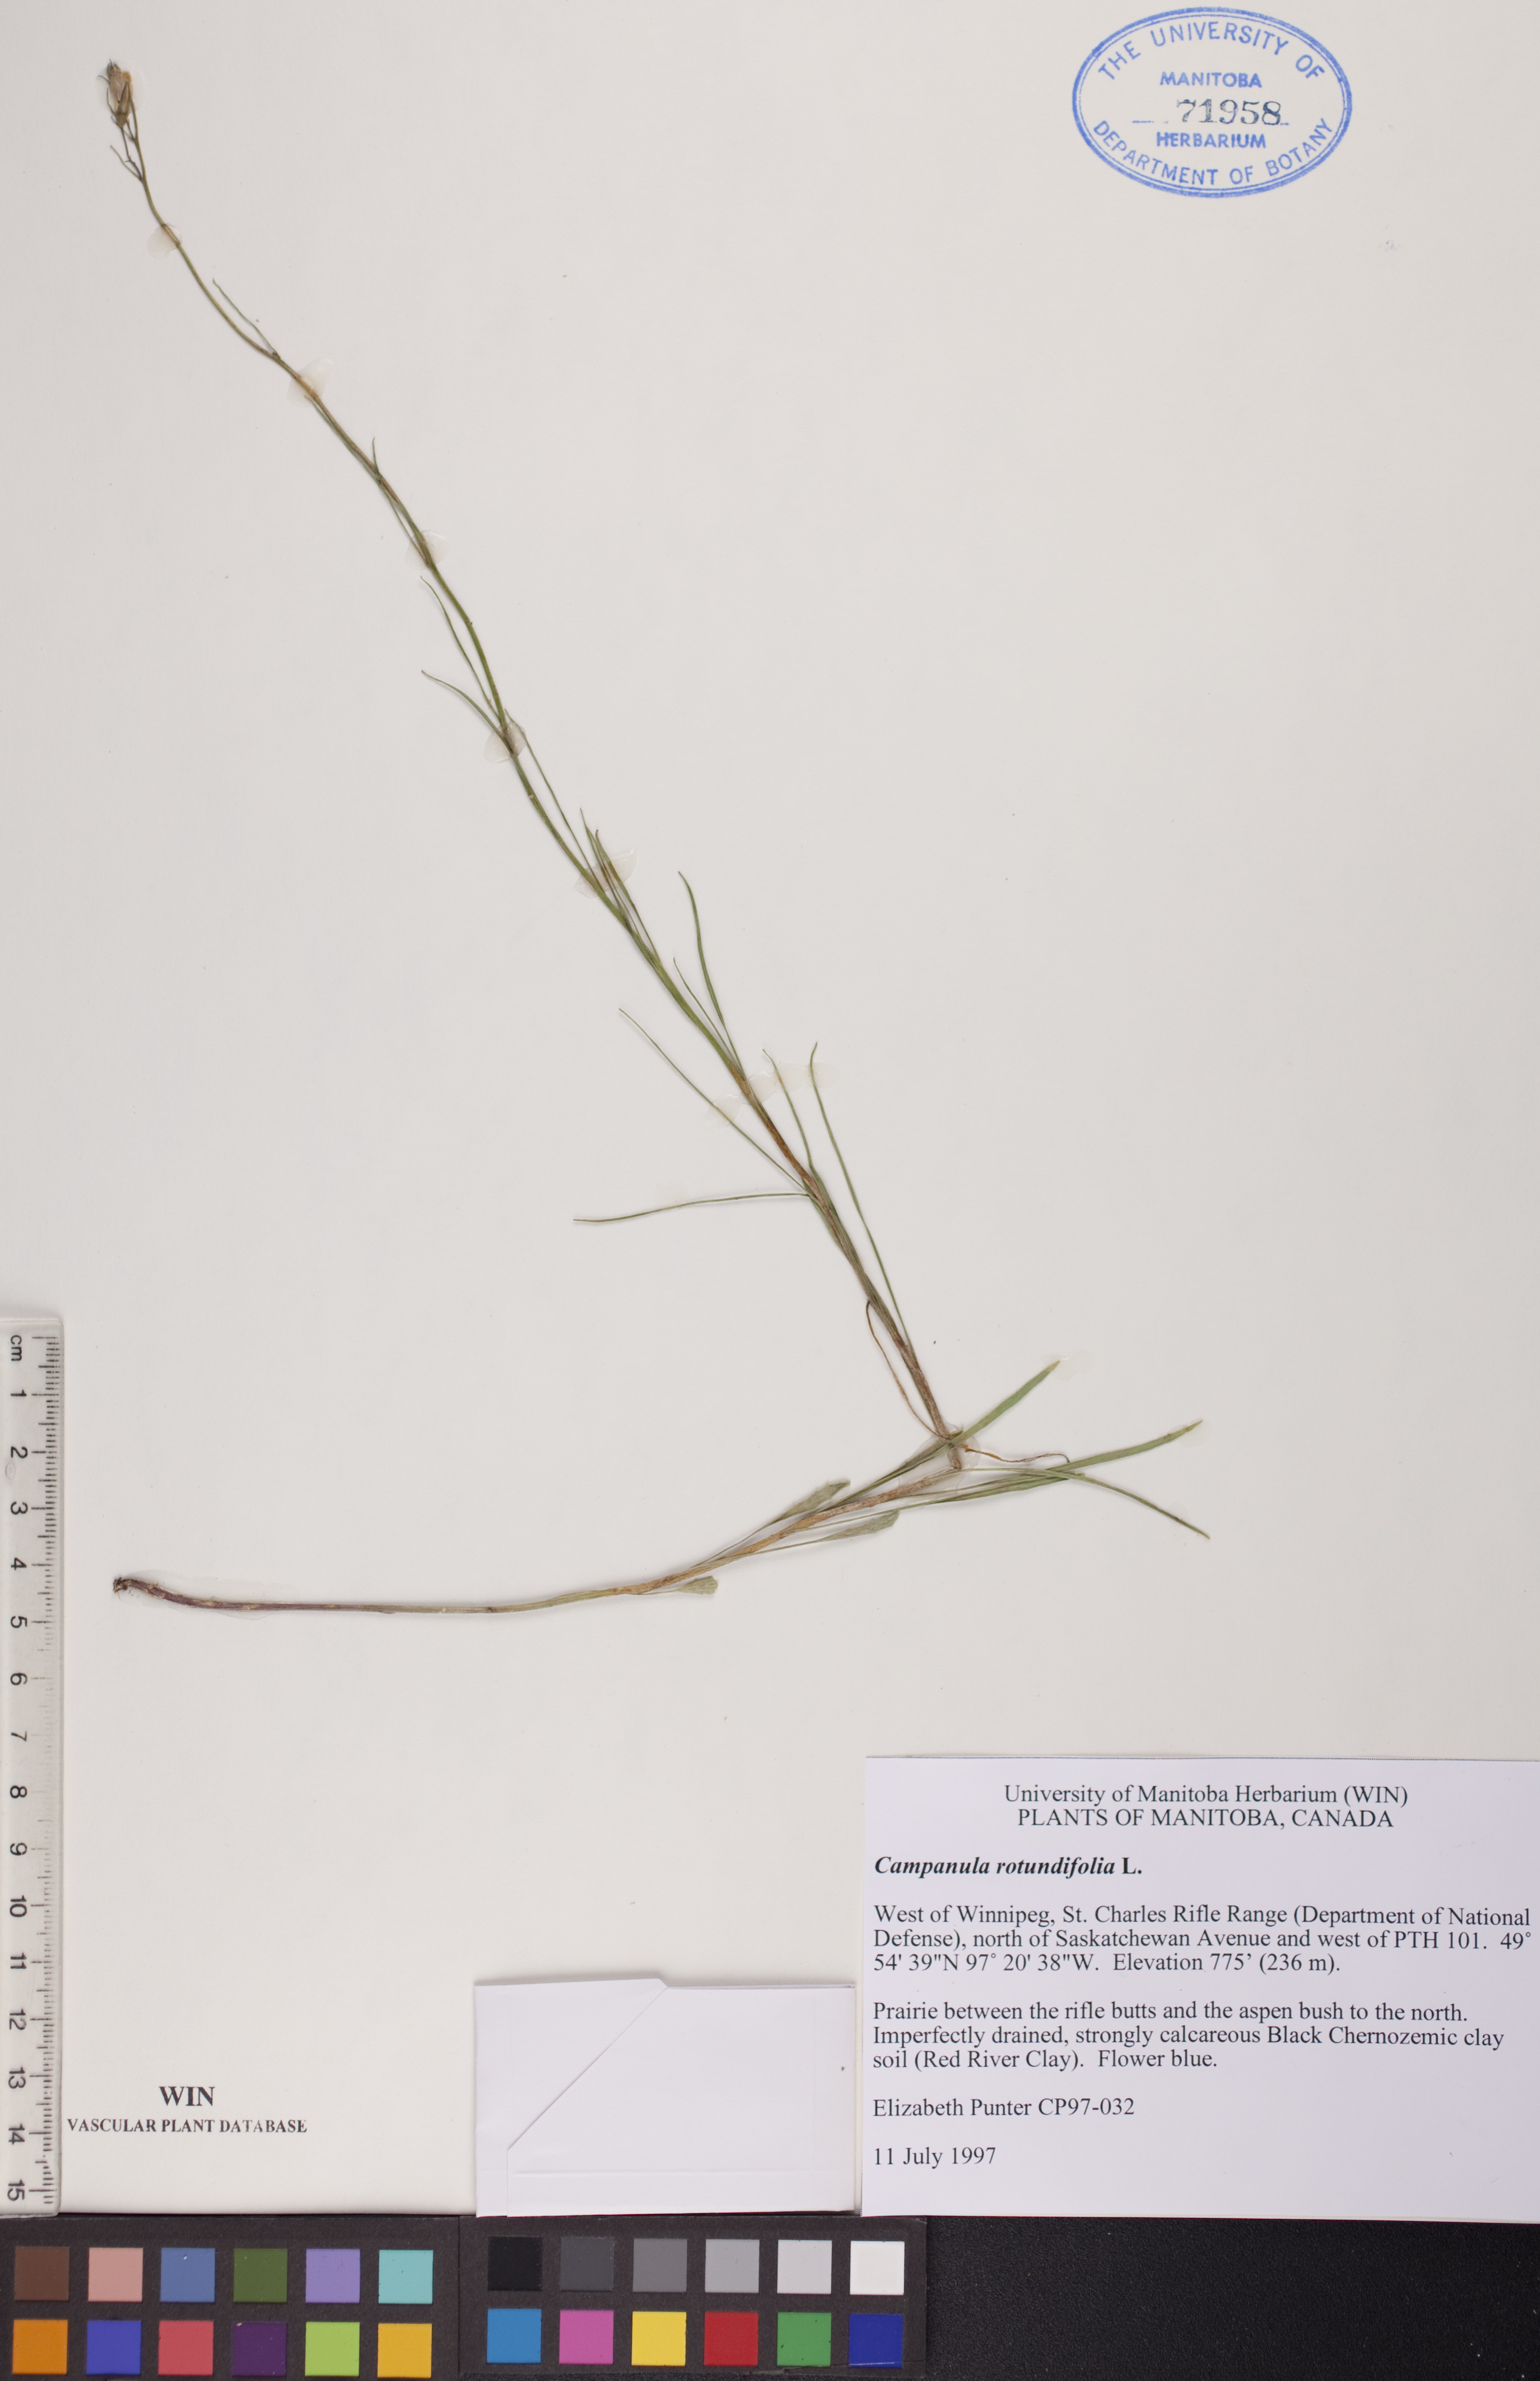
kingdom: Plantae
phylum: Tracheophyta
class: Magnoliopsida
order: Asterales
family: Campanulaceae
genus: Campanula
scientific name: Campanula rotundifolia
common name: Harebell
